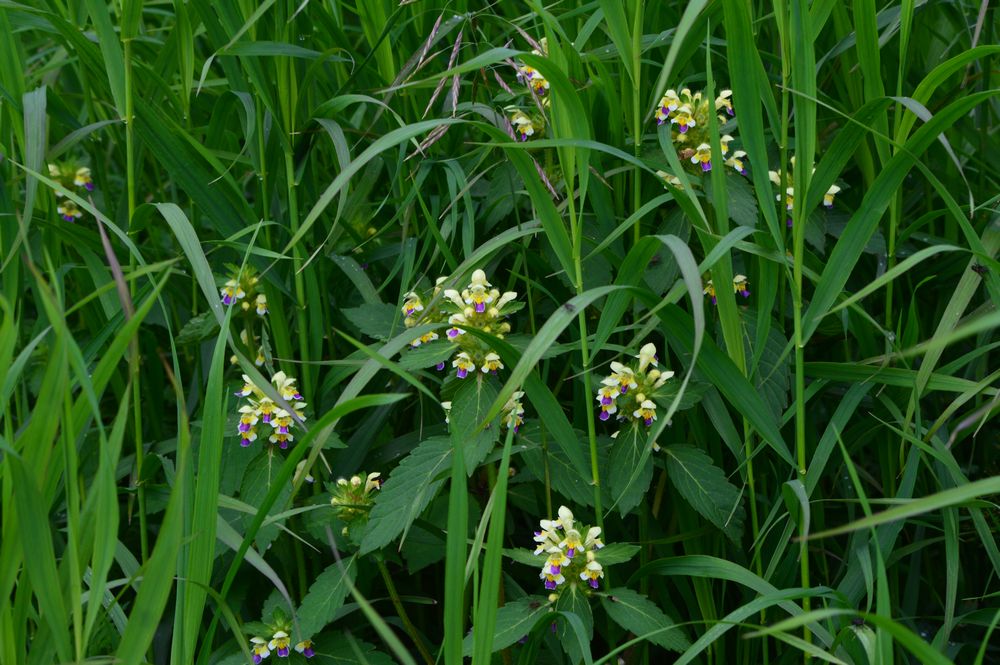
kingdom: Plantae
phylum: Tracheophyta
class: Magnoliopsida
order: Lamiales
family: Lamiaceae
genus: Galeopsis
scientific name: Galeopsis speciosa
